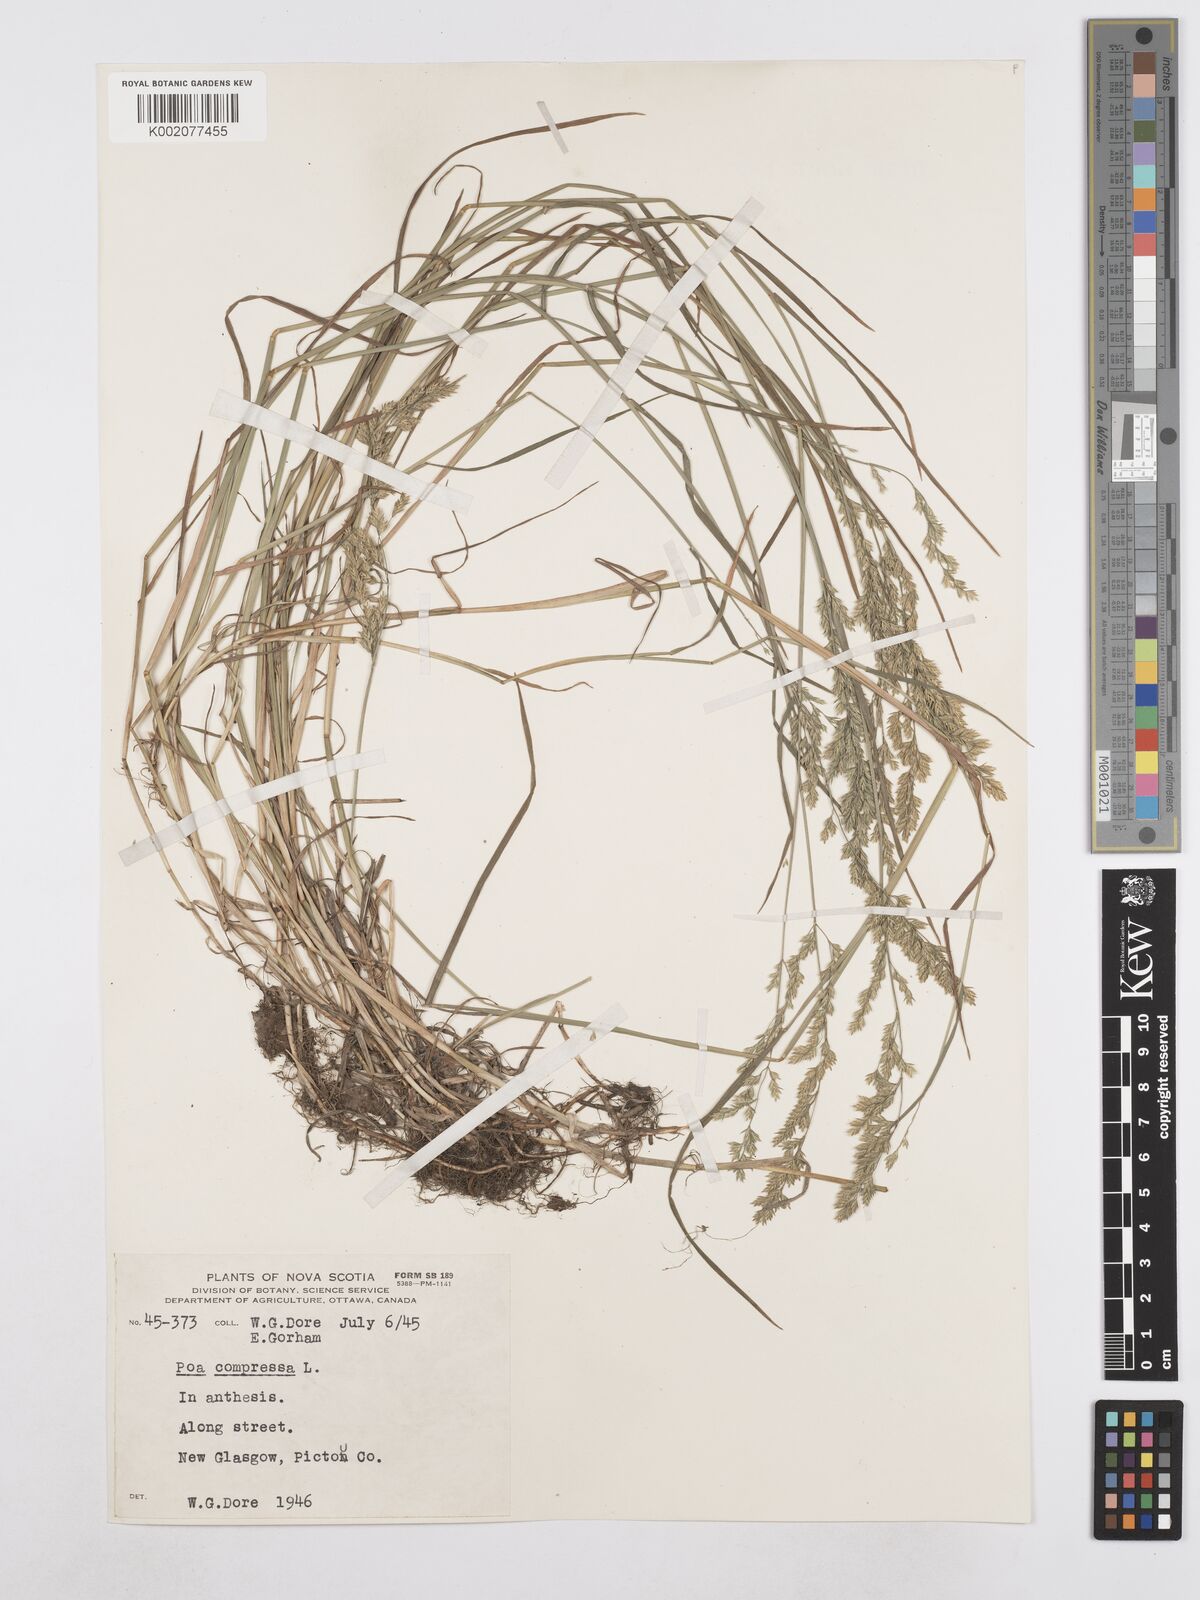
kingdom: Plantae
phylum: Tracheophyta
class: Liliopsida
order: Poales
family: Poaceae
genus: Poa
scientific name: Poa compressa
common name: Canada bluegrass
